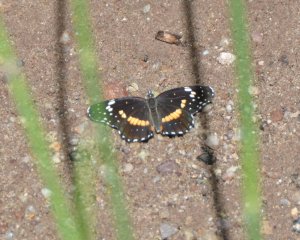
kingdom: Animalia
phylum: Arthropoda
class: Insecta
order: Lepidoptera
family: Nymphalidae
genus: Chlosyne
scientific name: Chlosyne lacinia
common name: Bordered Patch
